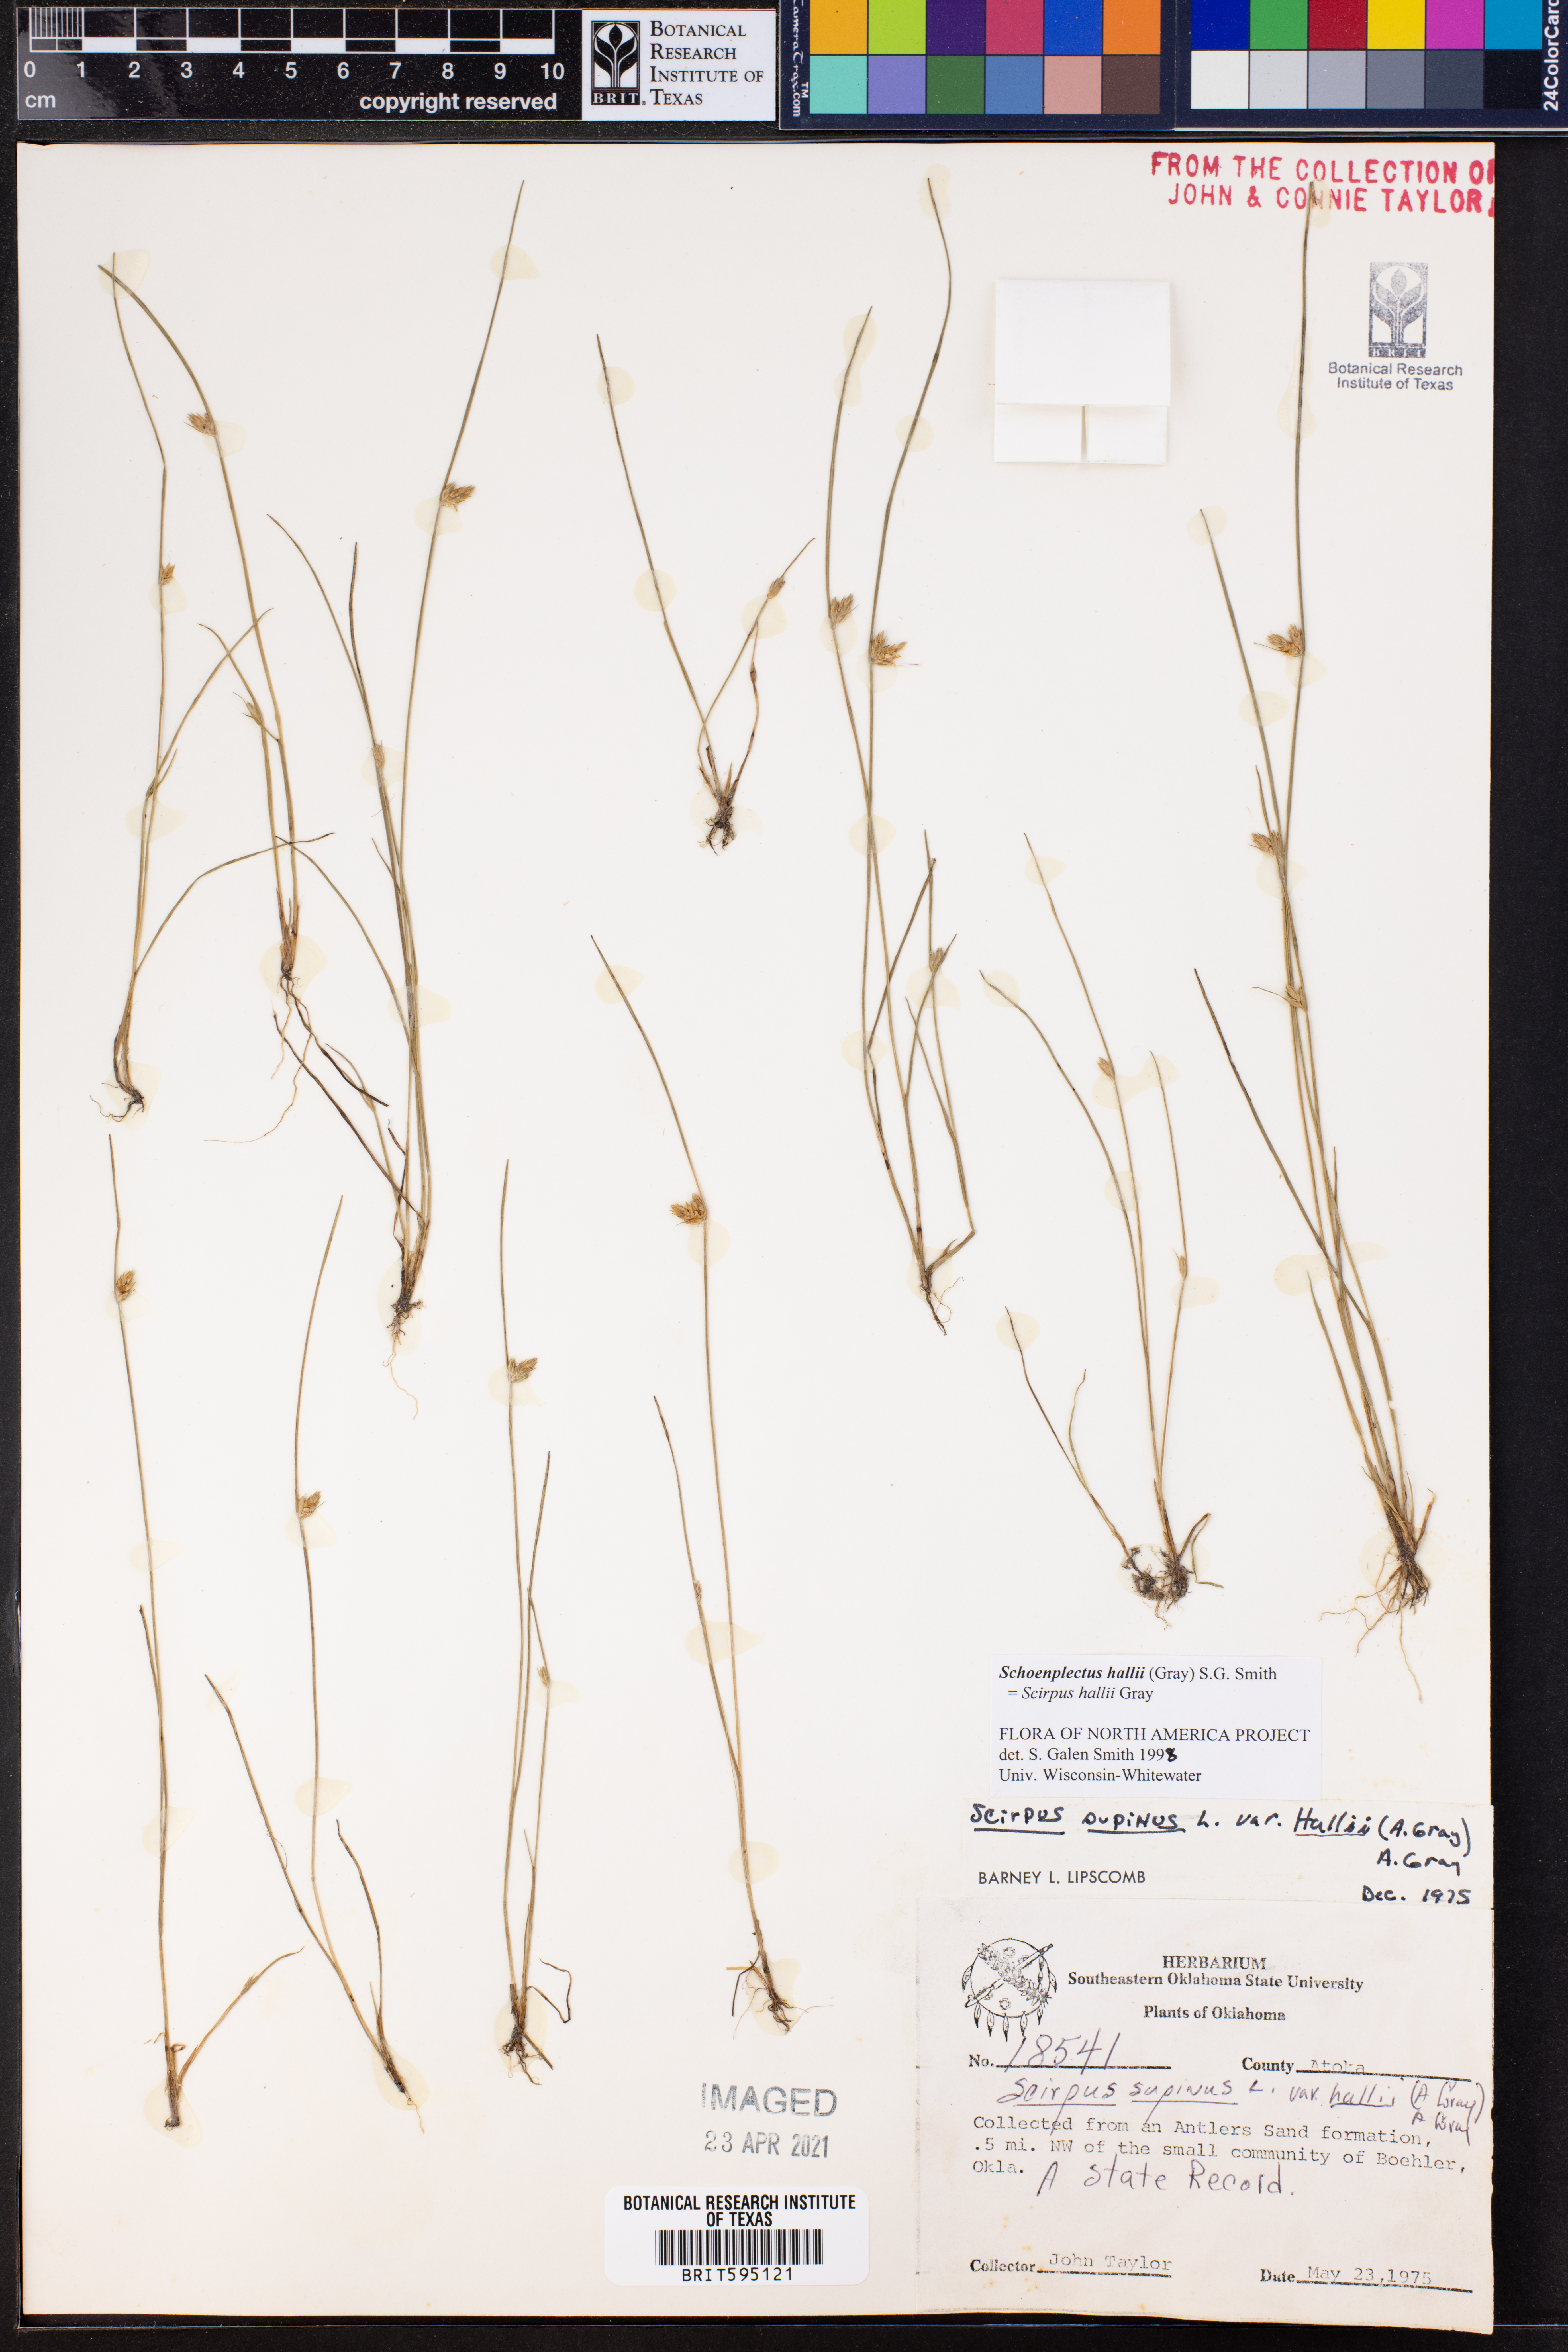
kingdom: Plantae
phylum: Tracheophyta
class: Liliopsida
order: Poales
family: Cyperaceae
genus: Schoenoplectiella
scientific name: Schoenoplectiella hallii
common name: Hall's bullrush
